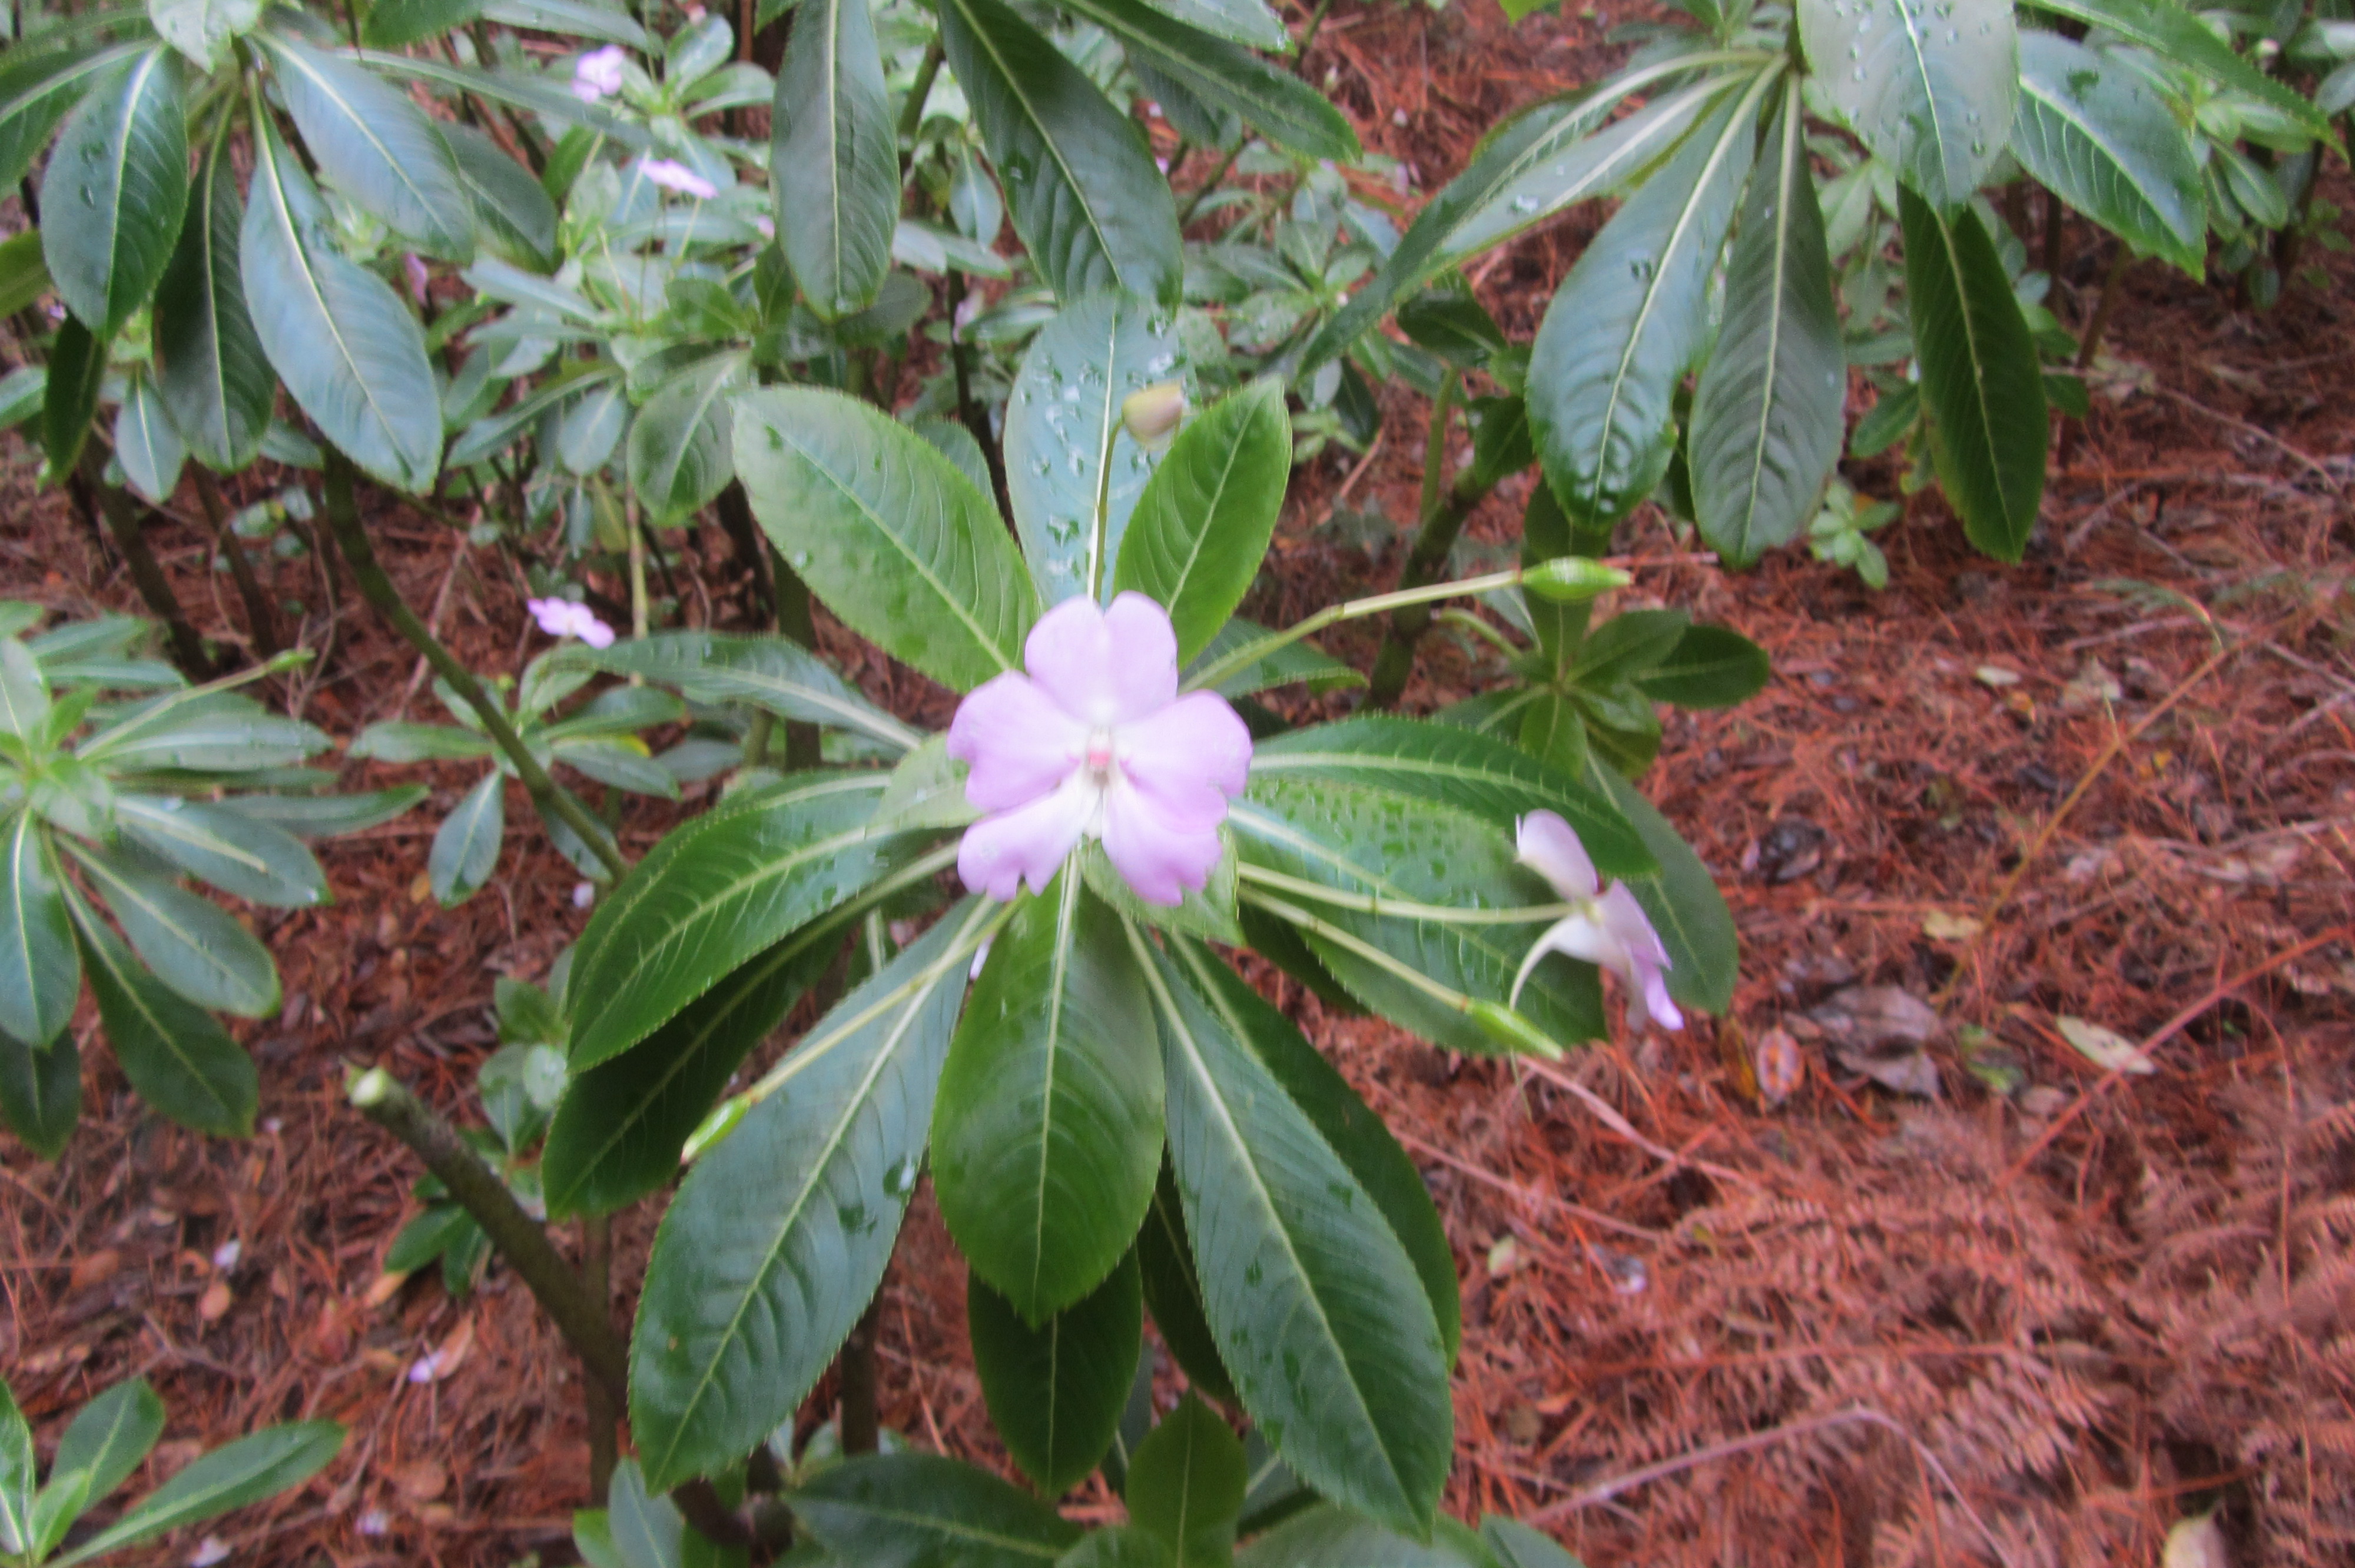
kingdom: Plantae
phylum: Tracheophyta
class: Magnoliopsida
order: Ericales
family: Balsaminaceae
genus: Impatiens
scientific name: Impatiens sodenii
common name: Oliver's touch-me-not
